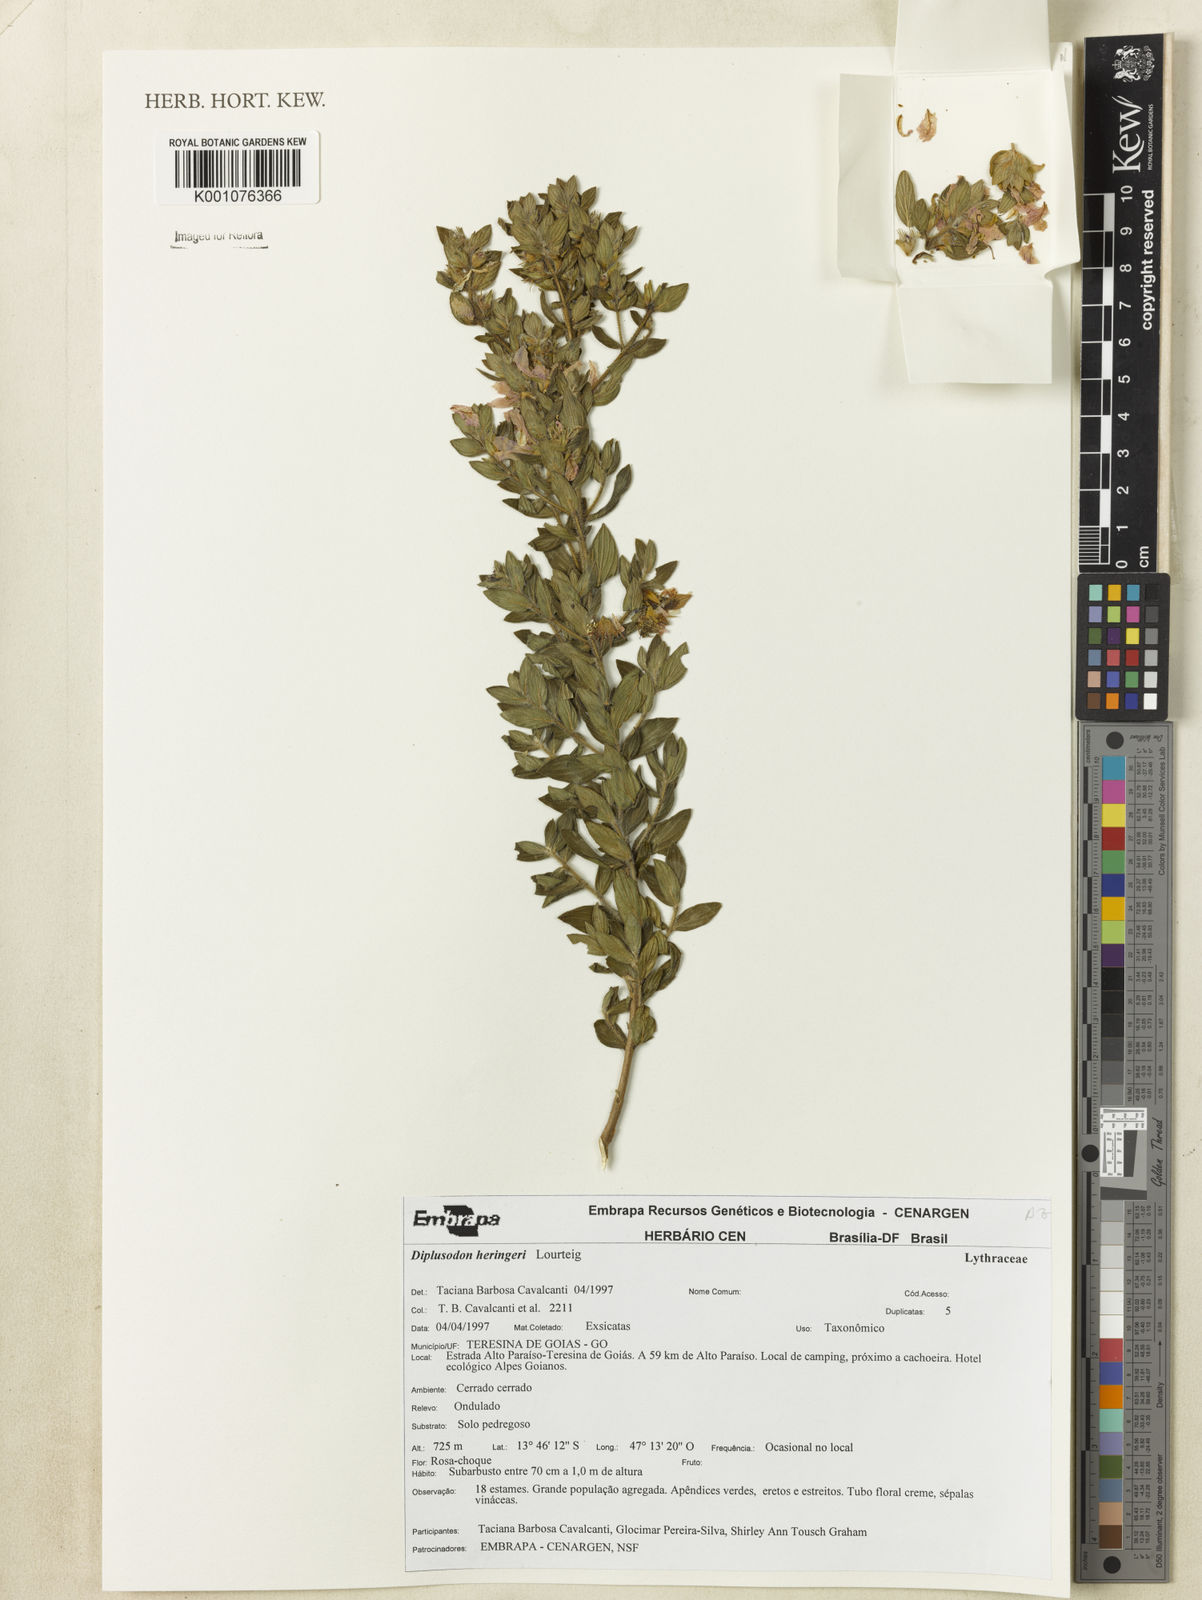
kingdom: Plantae
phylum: Tracheophyta
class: Magnoliopsida
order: Myrtales
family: Lythraceae
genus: Diplusodon
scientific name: Diplusodon heringeri
